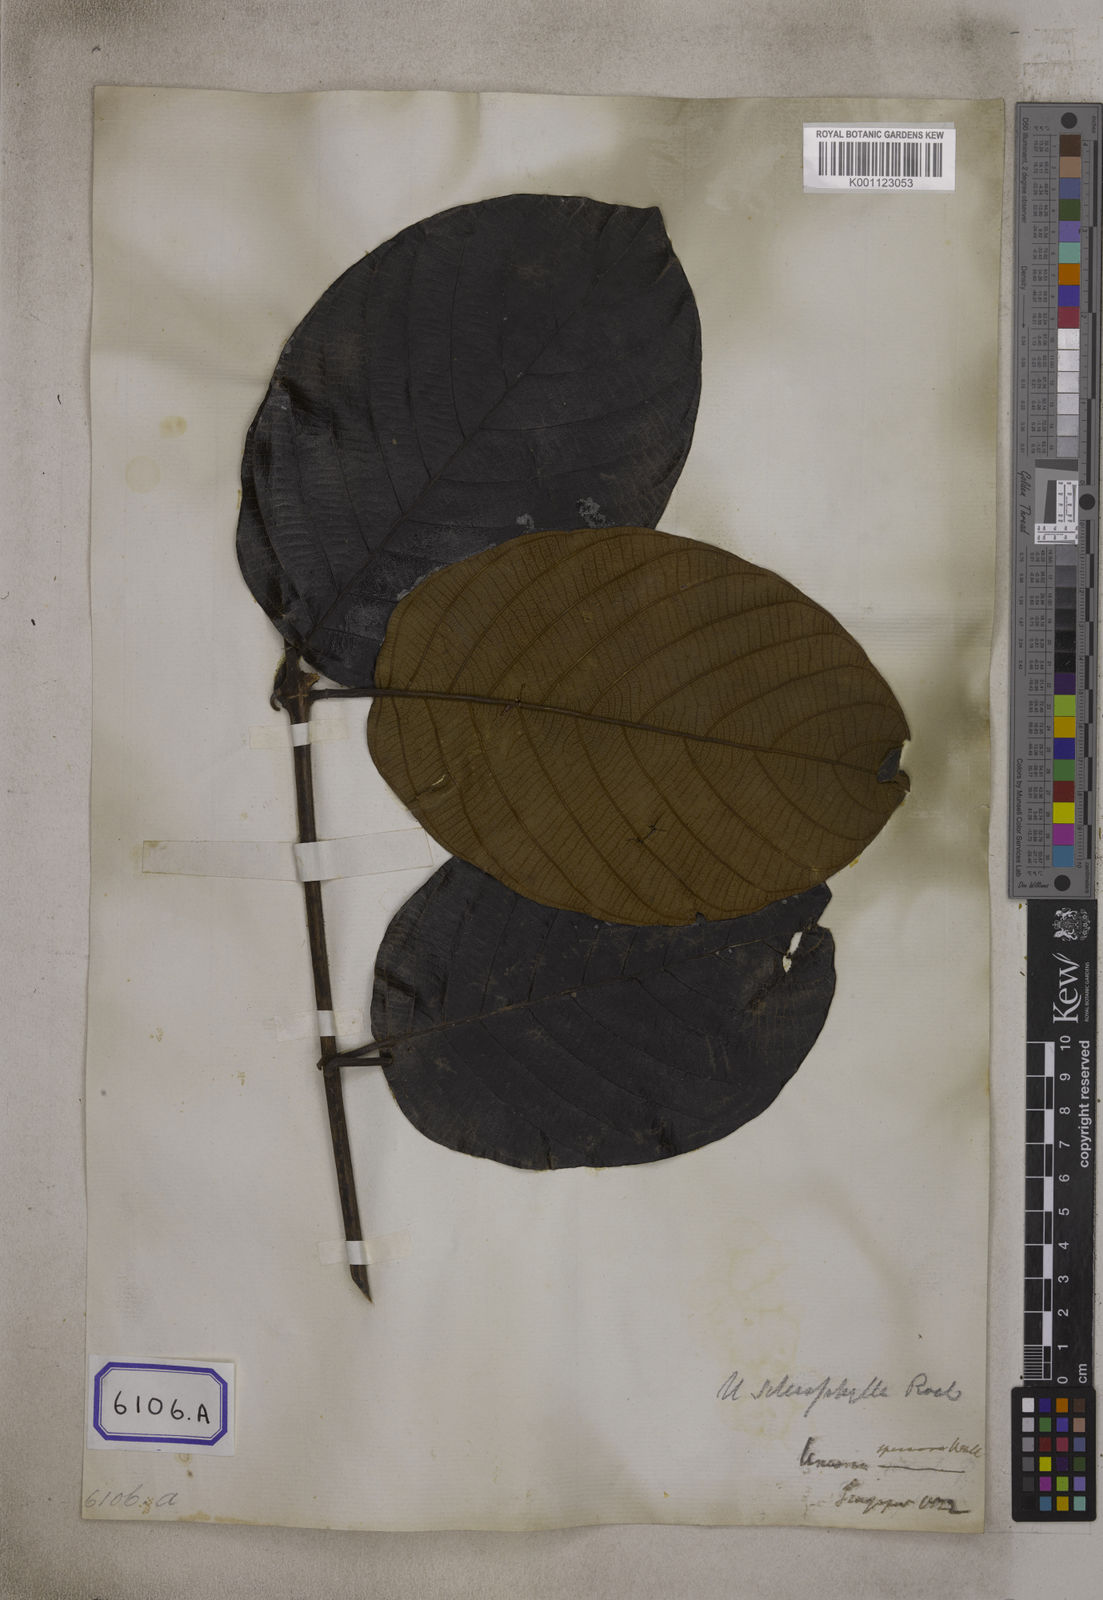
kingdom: Plantae
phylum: Tracheophyta
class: Magnoliopsida
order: Gentianales
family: Rubiaceae
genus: Uncaria
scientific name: Uncaria cordata
